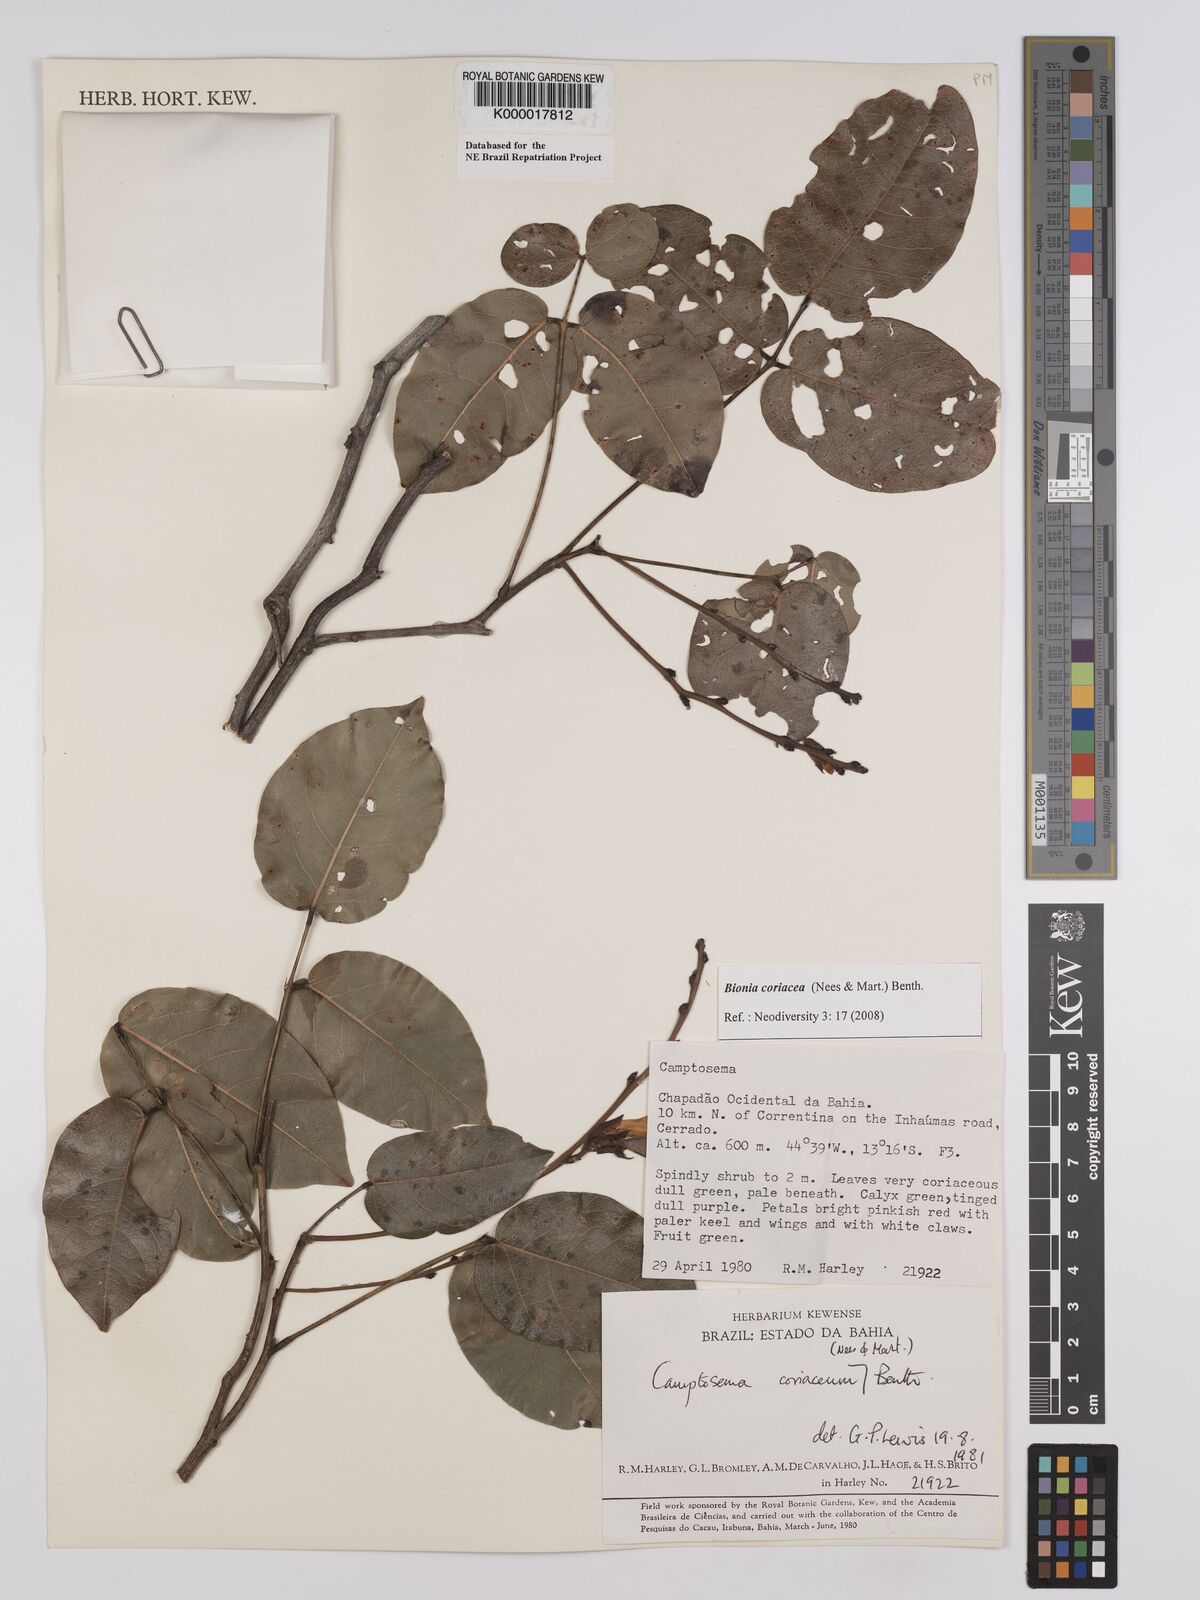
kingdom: Plantae
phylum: Tracheophyta
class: Magnoliopsida
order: Fabales
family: Fabaceae
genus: Camptosema
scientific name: Camptosema coriaceum
